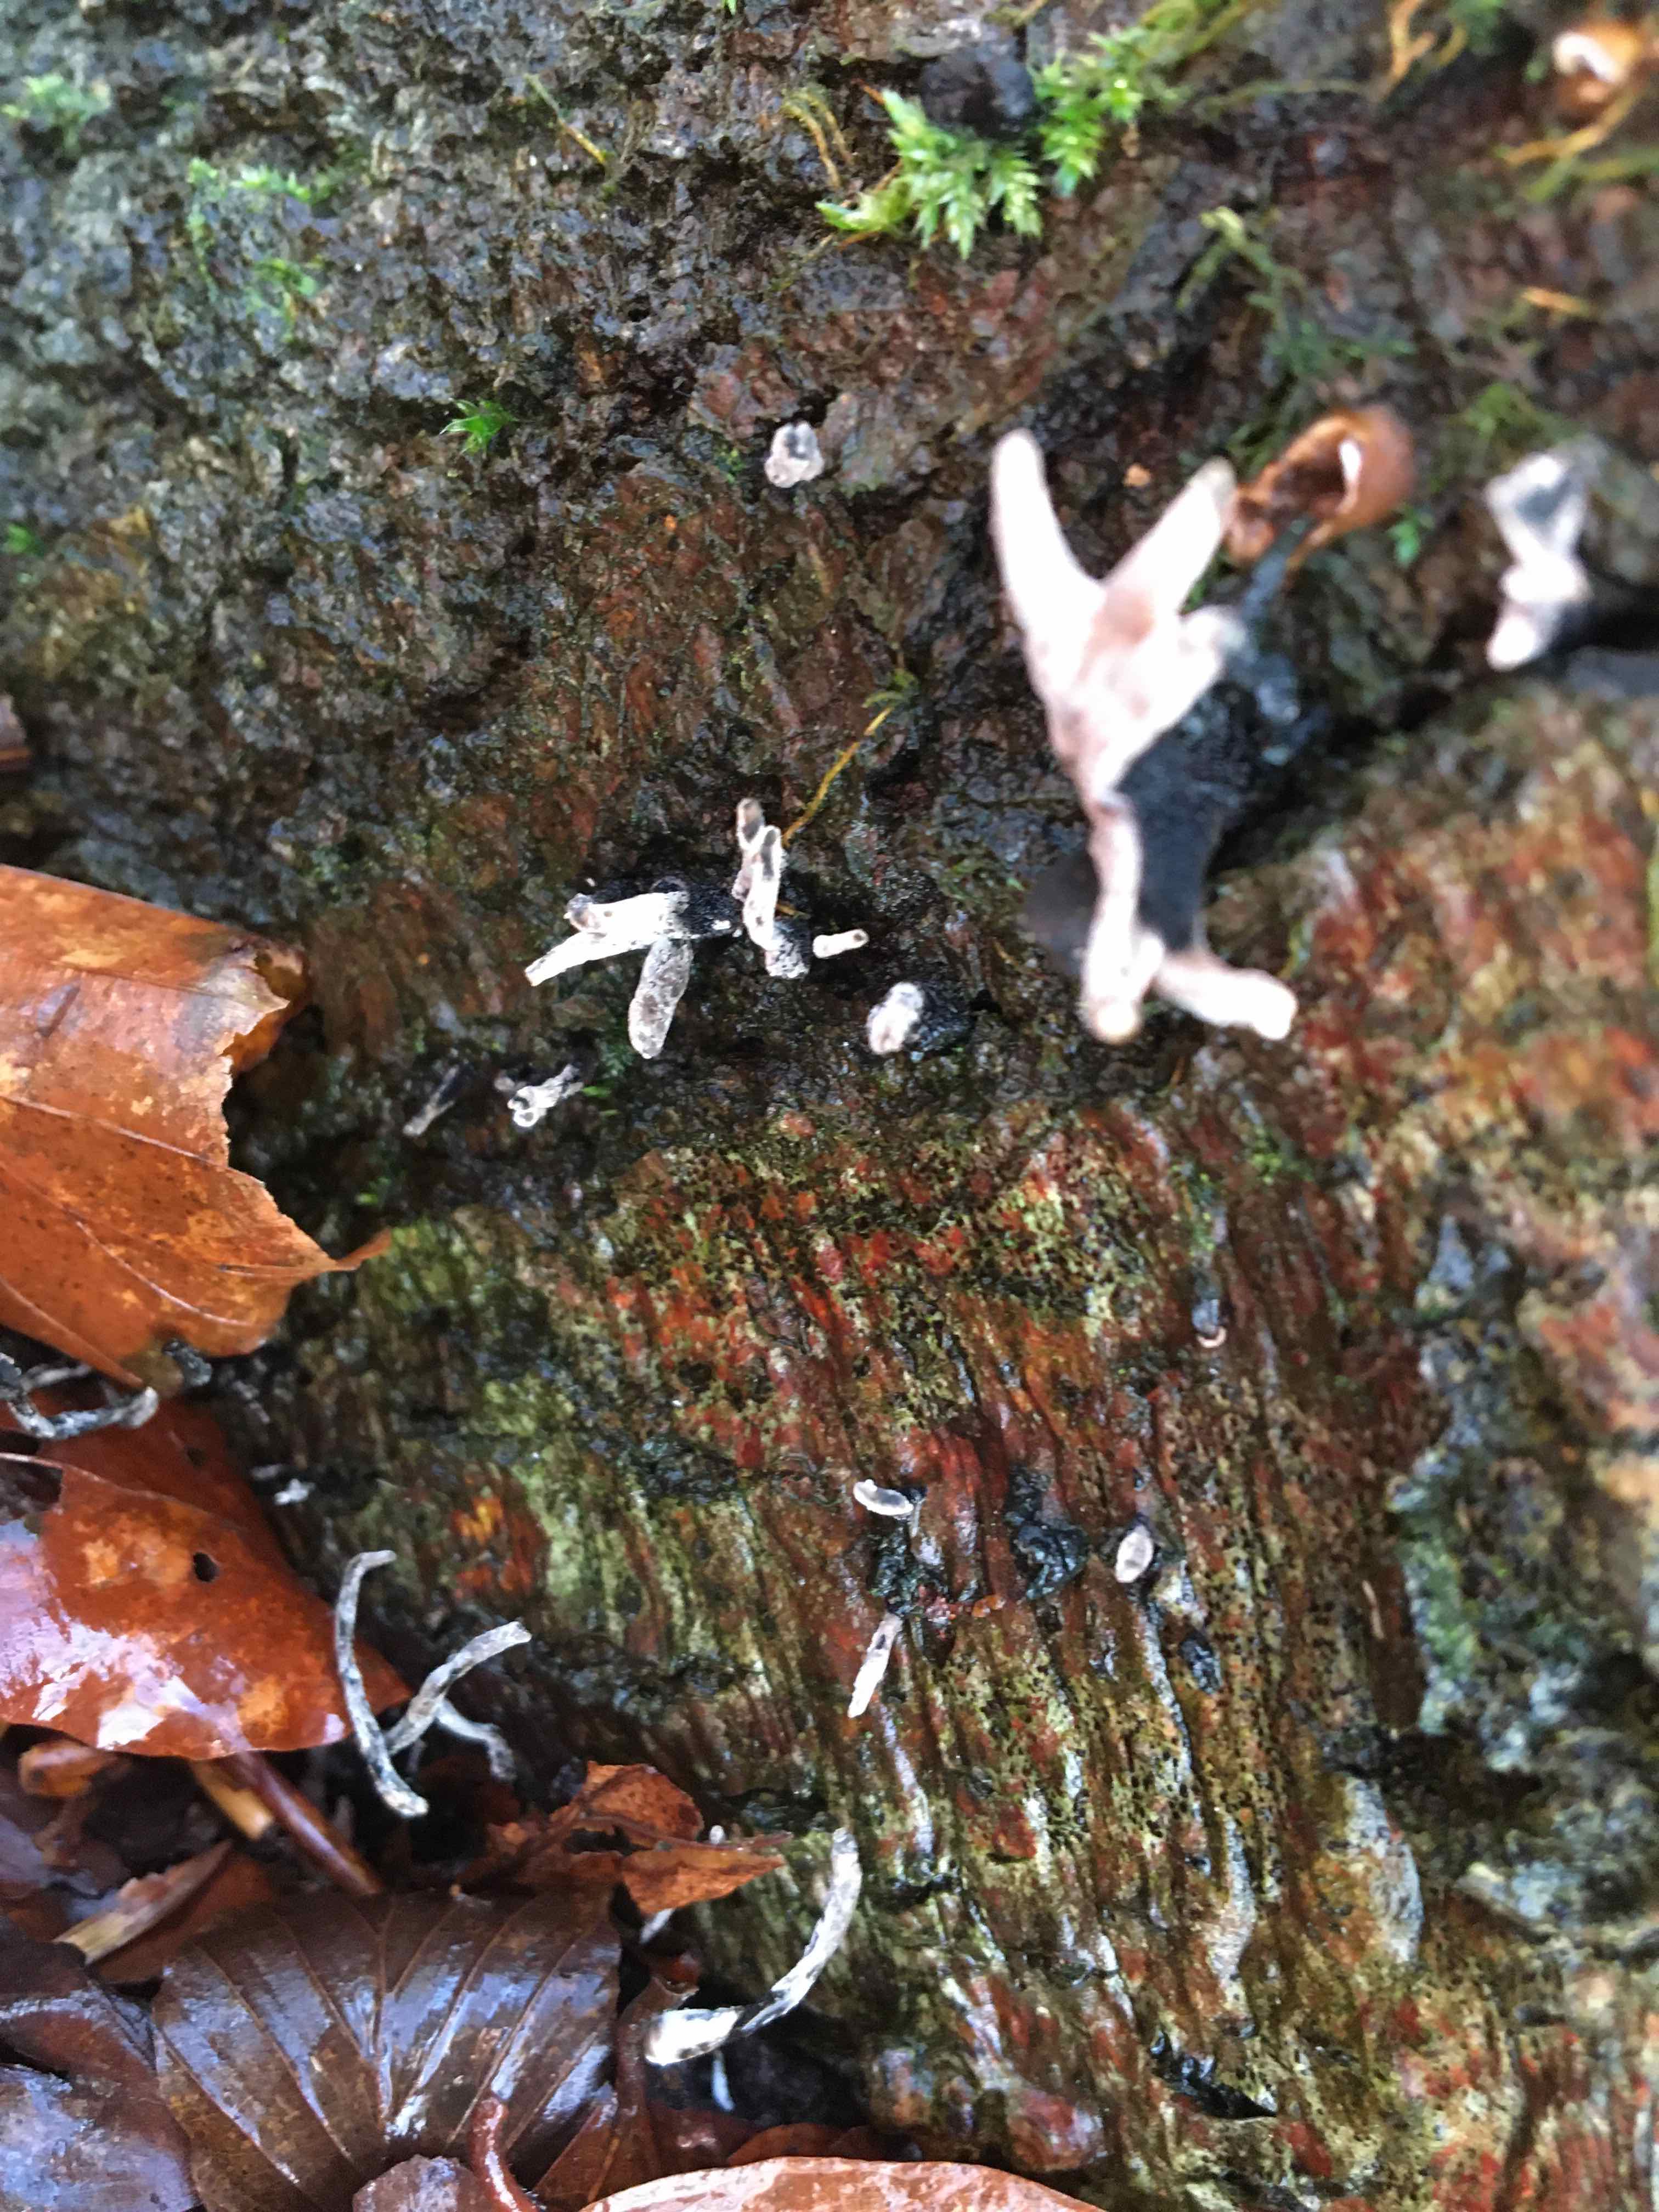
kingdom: Fungi
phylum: Ascomycota
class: Sordariomycetes
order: Xylariales
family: Xylariaceae
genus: Xylaria
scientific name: Xylaria hypoxylon
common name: grenet stødsvamp
